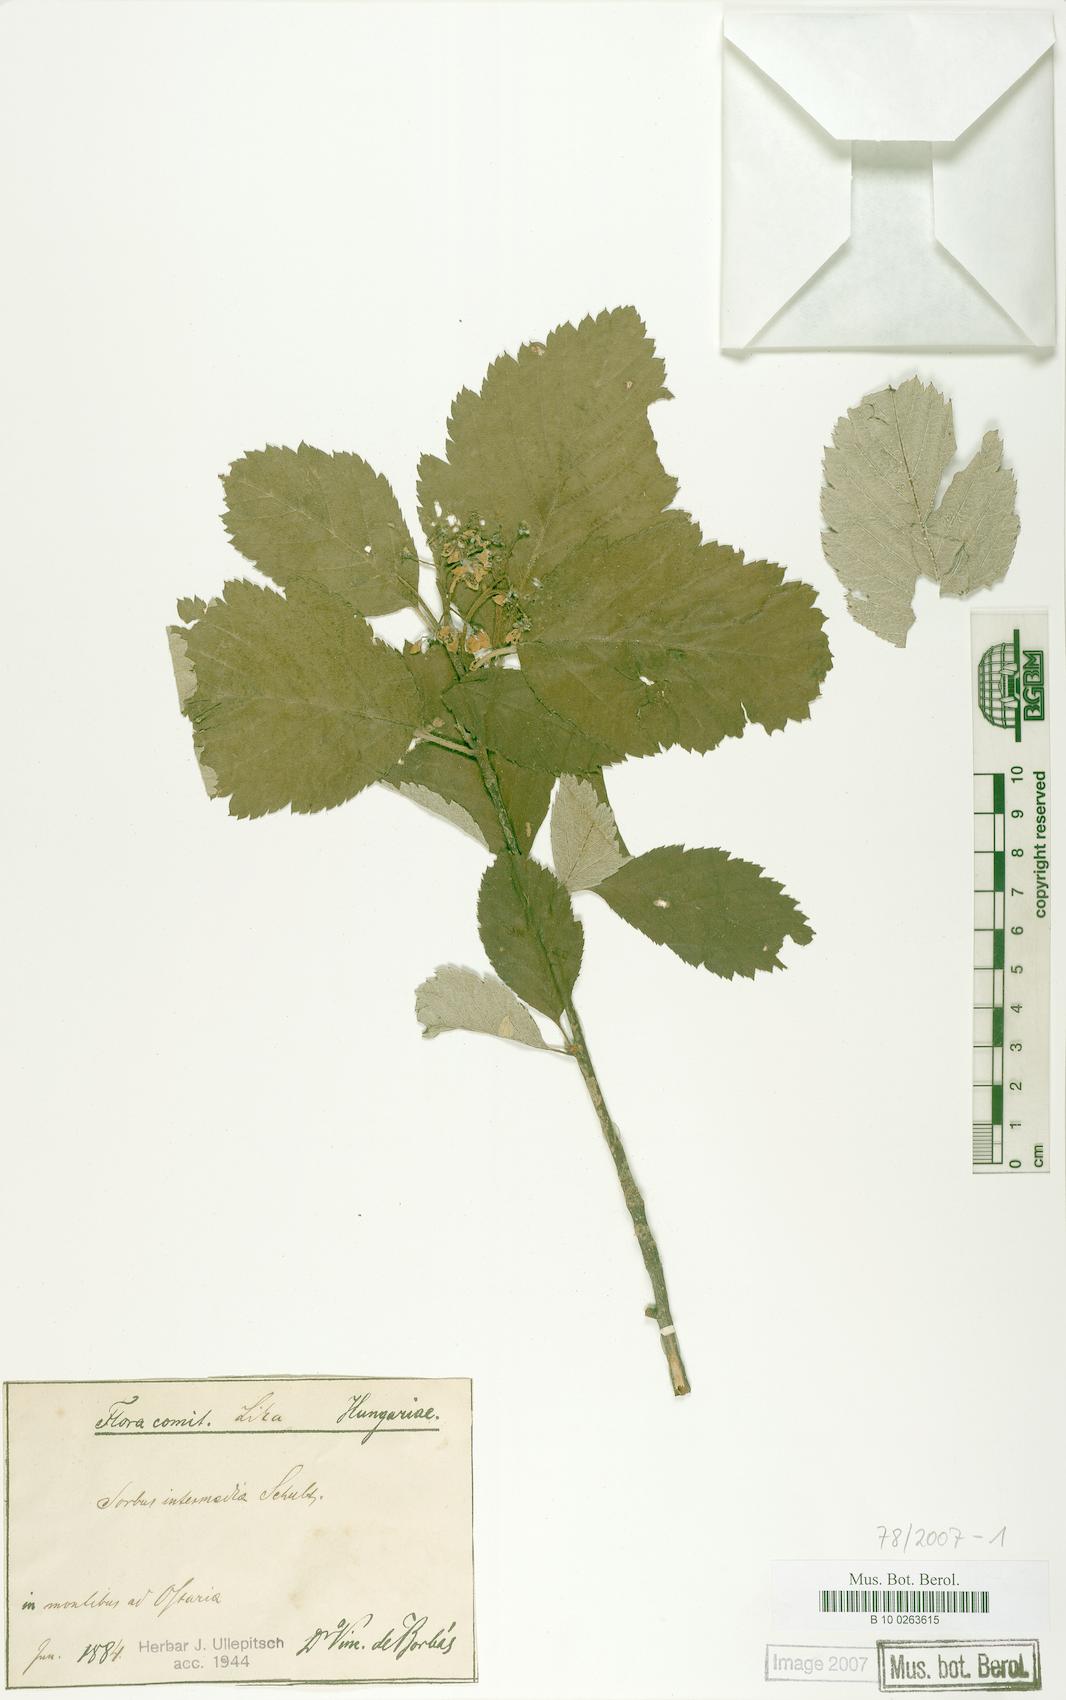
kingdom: Plantae
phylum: Tracheophyta
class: Magnoliopsida
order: Rosales
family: Rosaceae
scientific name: Rosaceae
